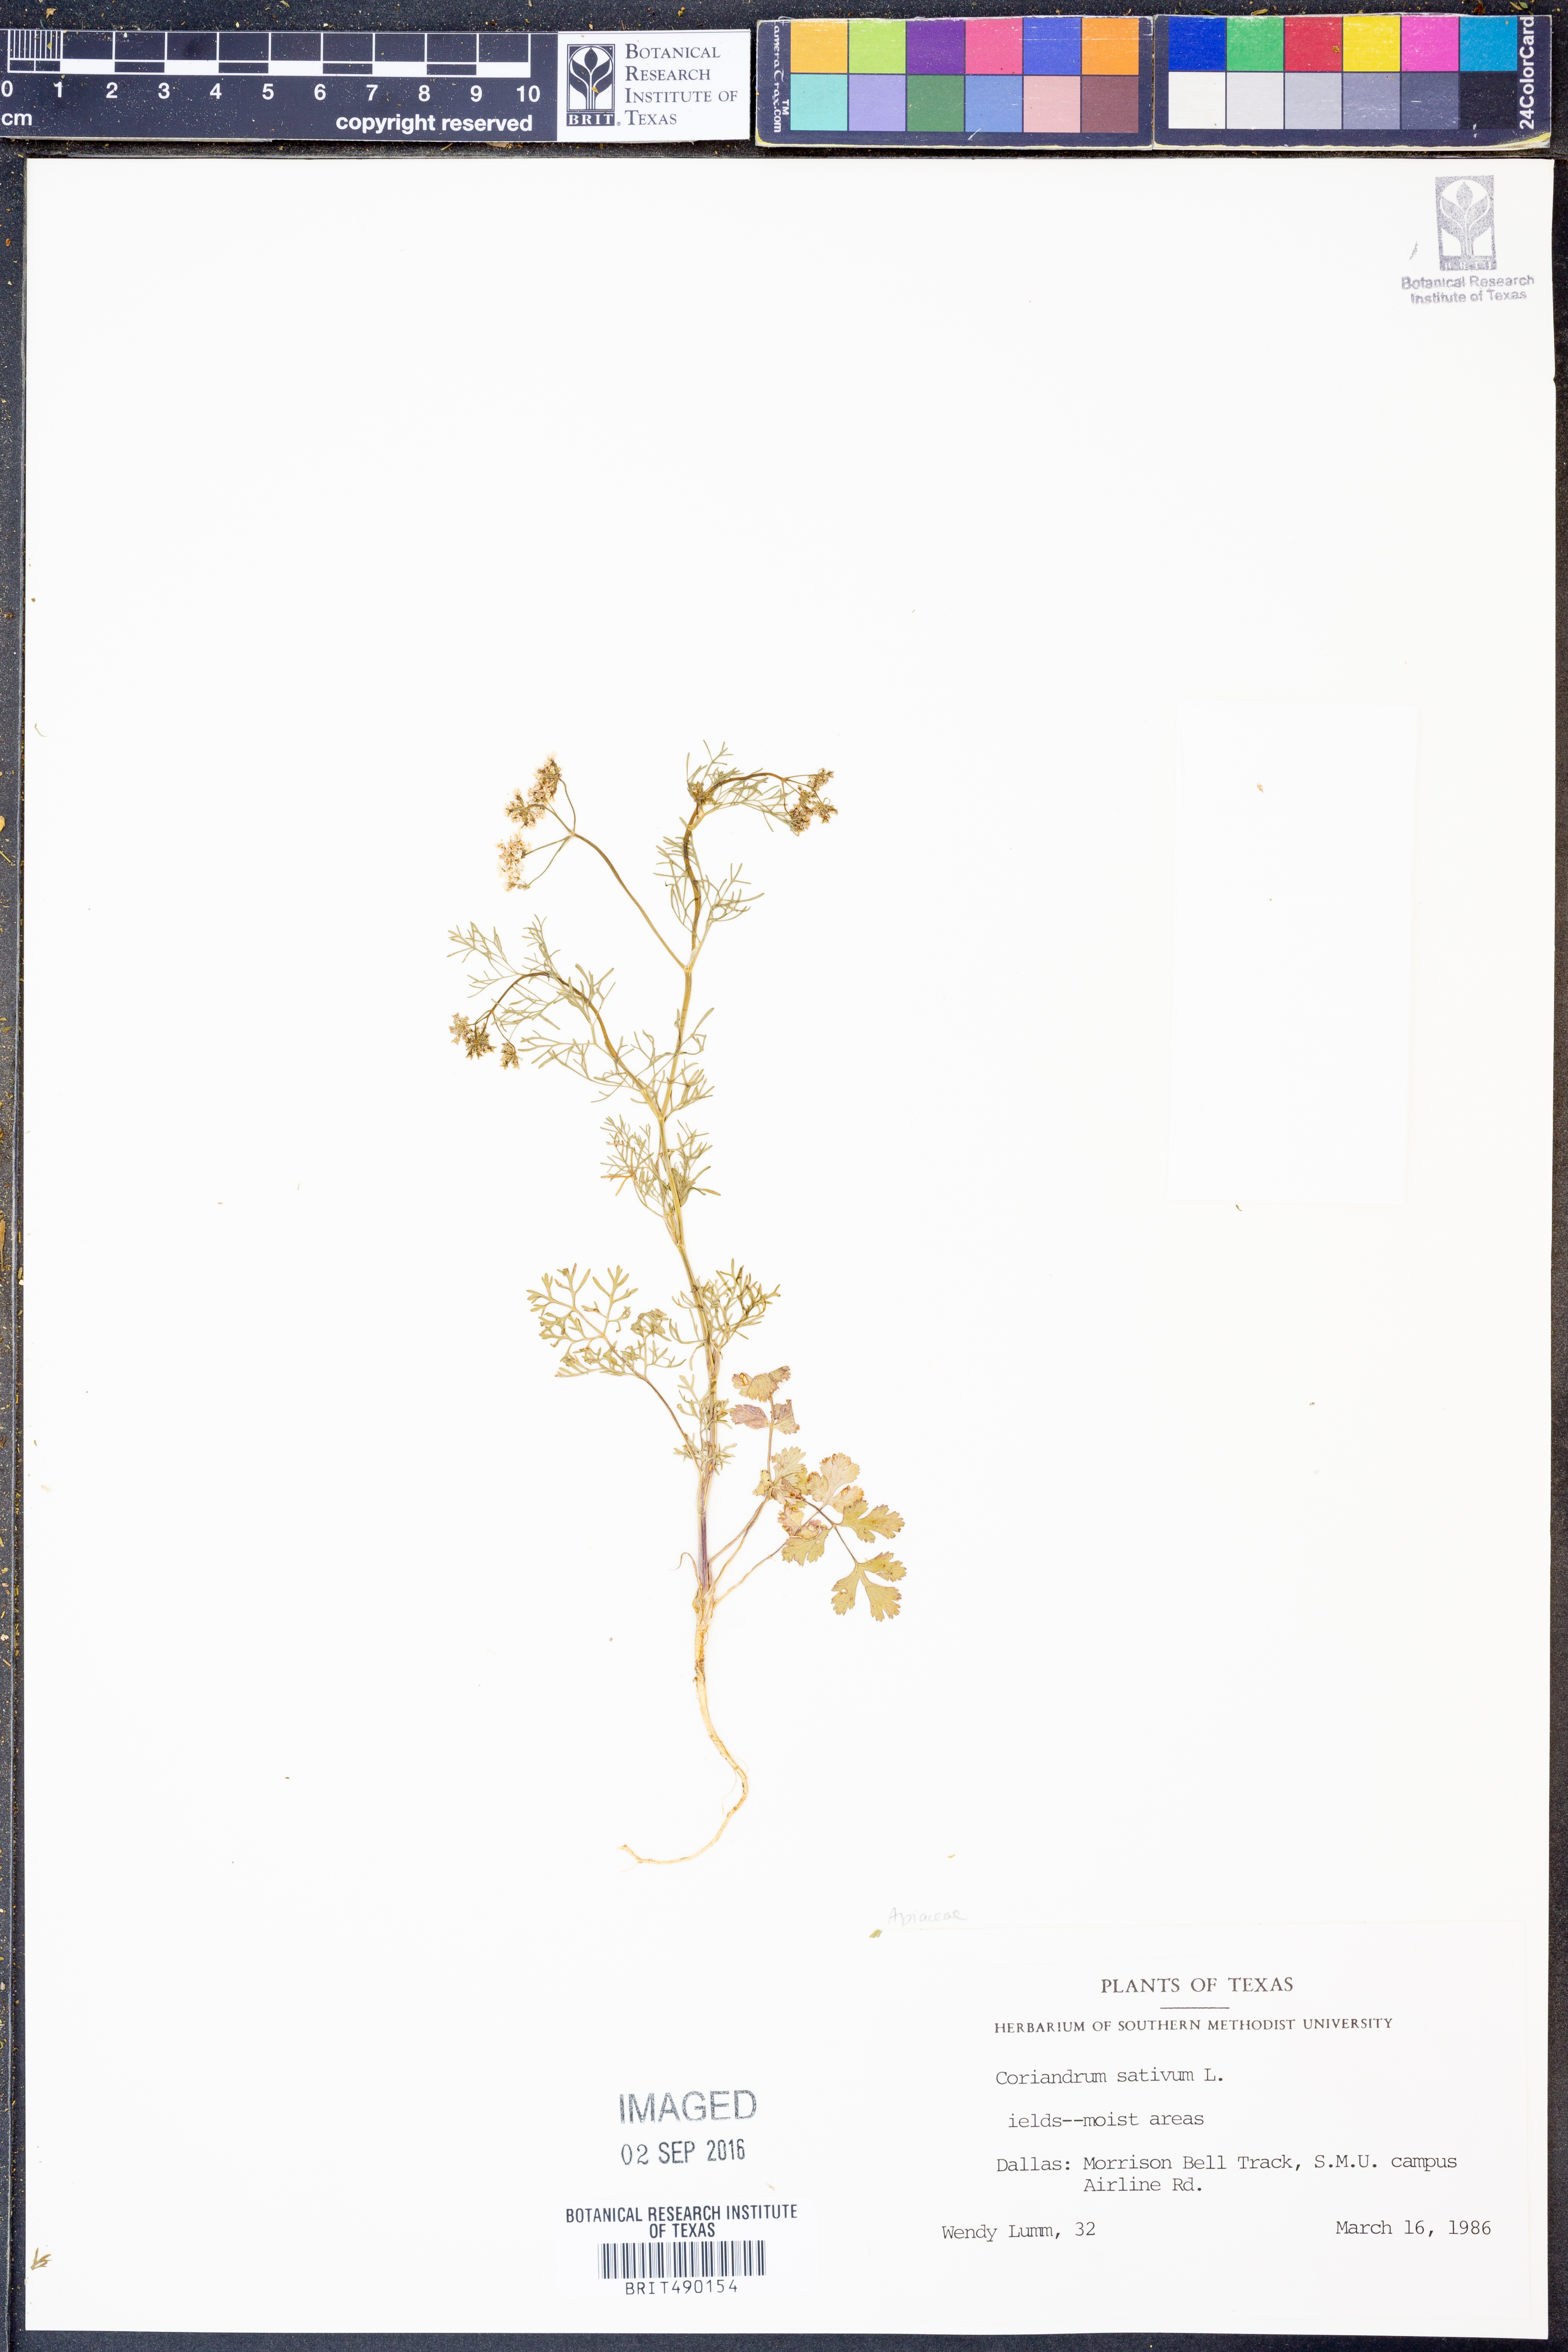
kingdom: Plantae
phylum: Tracheophyta
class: Magnoliopsida
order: Apiales
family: Apiaceae
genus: Coriandrum
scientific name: Coriandrum sativum
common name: Coriander
